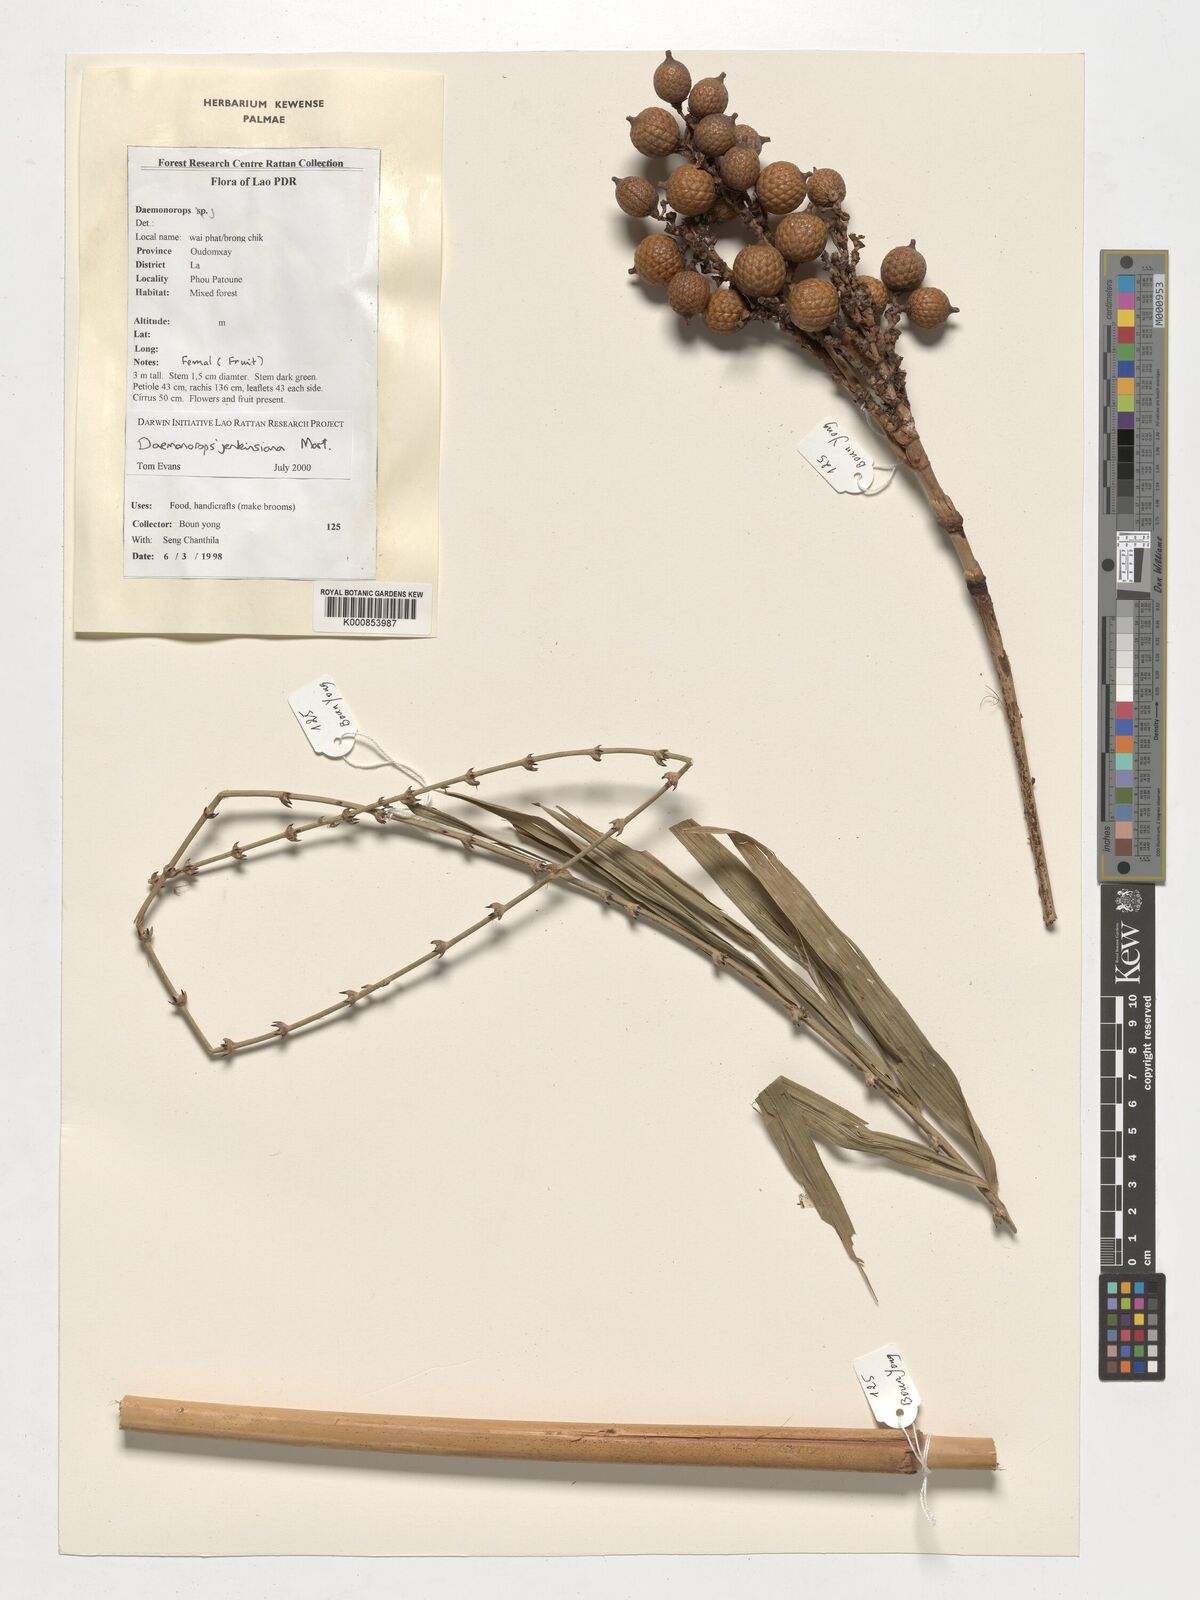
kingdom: Plantae
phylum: Tracheophyta
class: Liliopsida
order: Arecales
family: Arecaceae
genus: Calamus
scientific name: Calamus melanochaetes
